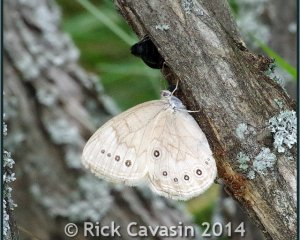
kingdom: Animalia
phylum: Arthropoda
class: Insecta
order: Lepidoptera
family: Nymphalidae
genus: Lethe
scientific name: Lethe eurydice
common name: Eyed Brown
